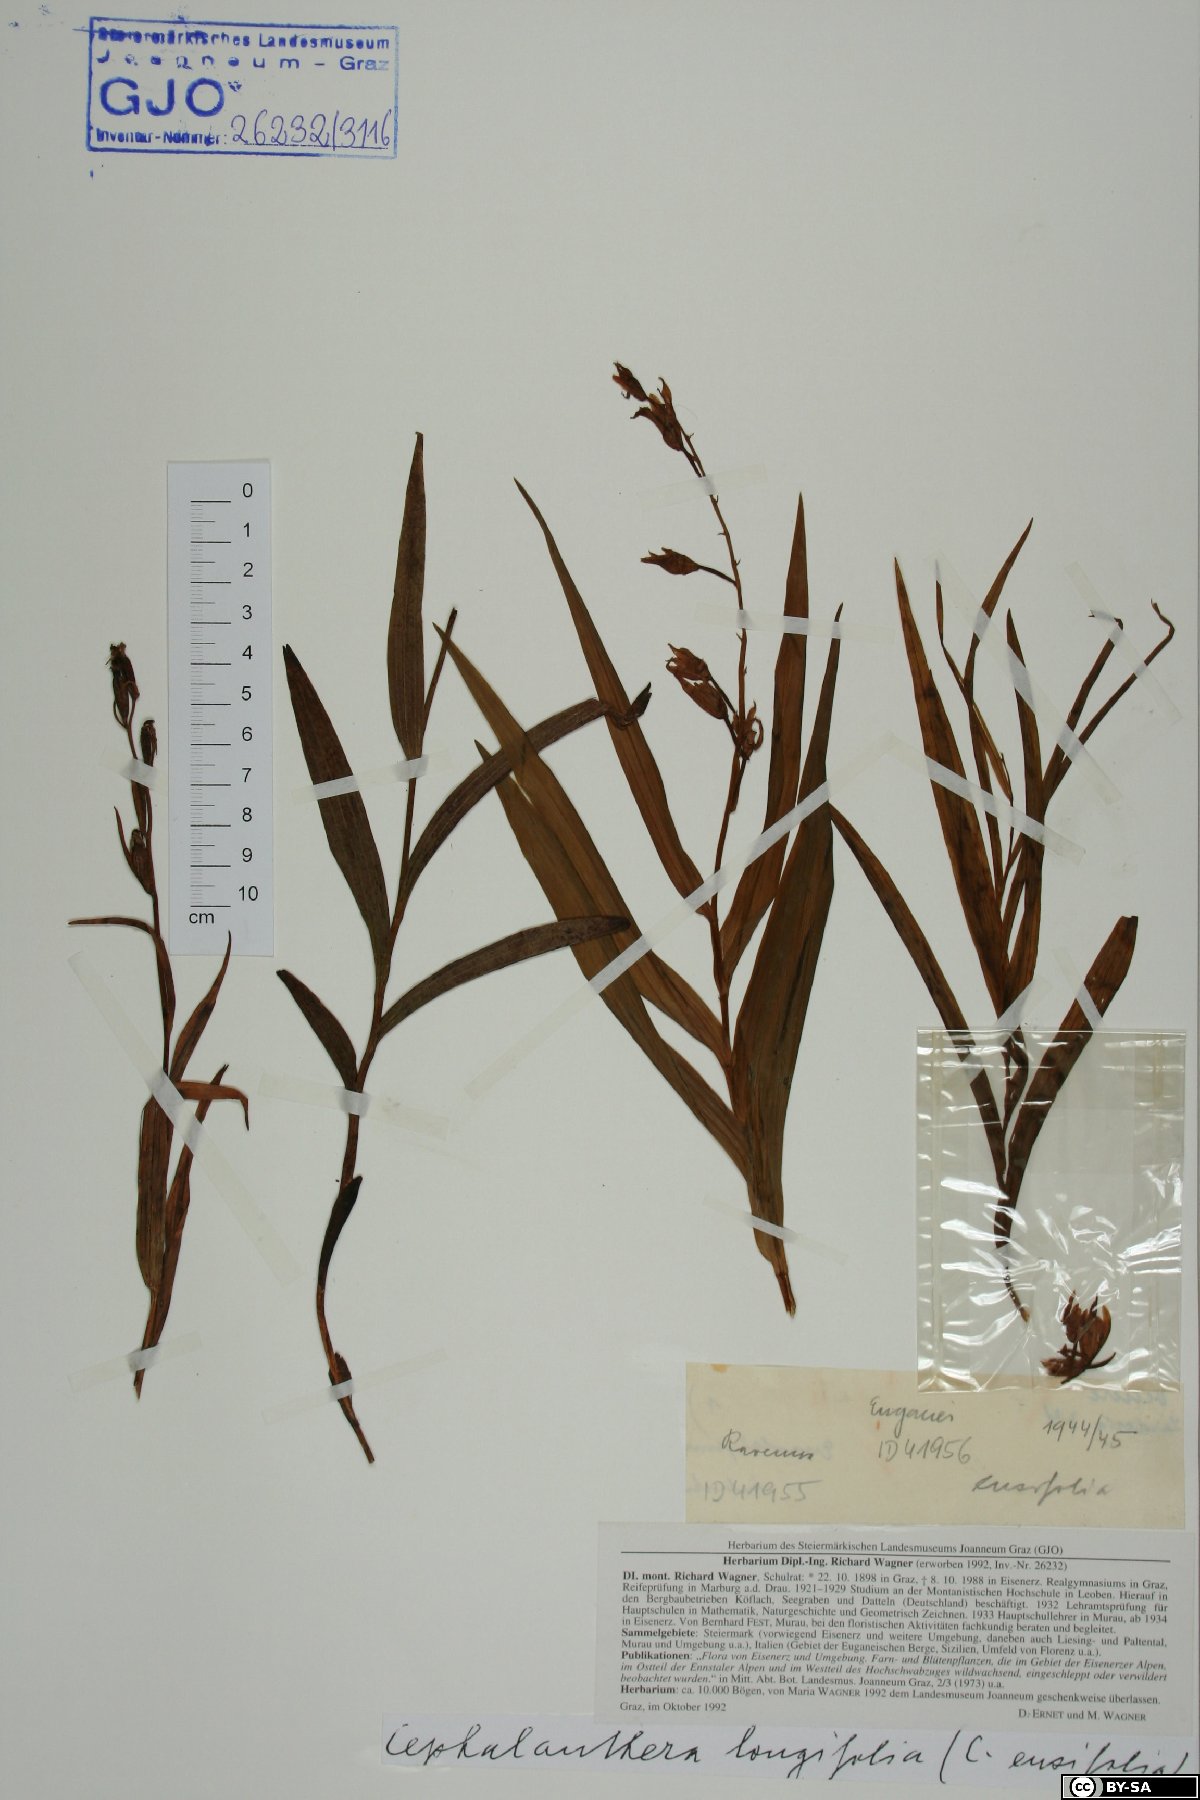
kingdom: Plantae
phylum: Tracheophyta
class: Liliopsida
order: Asparagales
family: Orchidaceae
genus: Cephalanthera
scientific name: Cephalanthera longifolia
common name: Narrow-leaved helleborine
